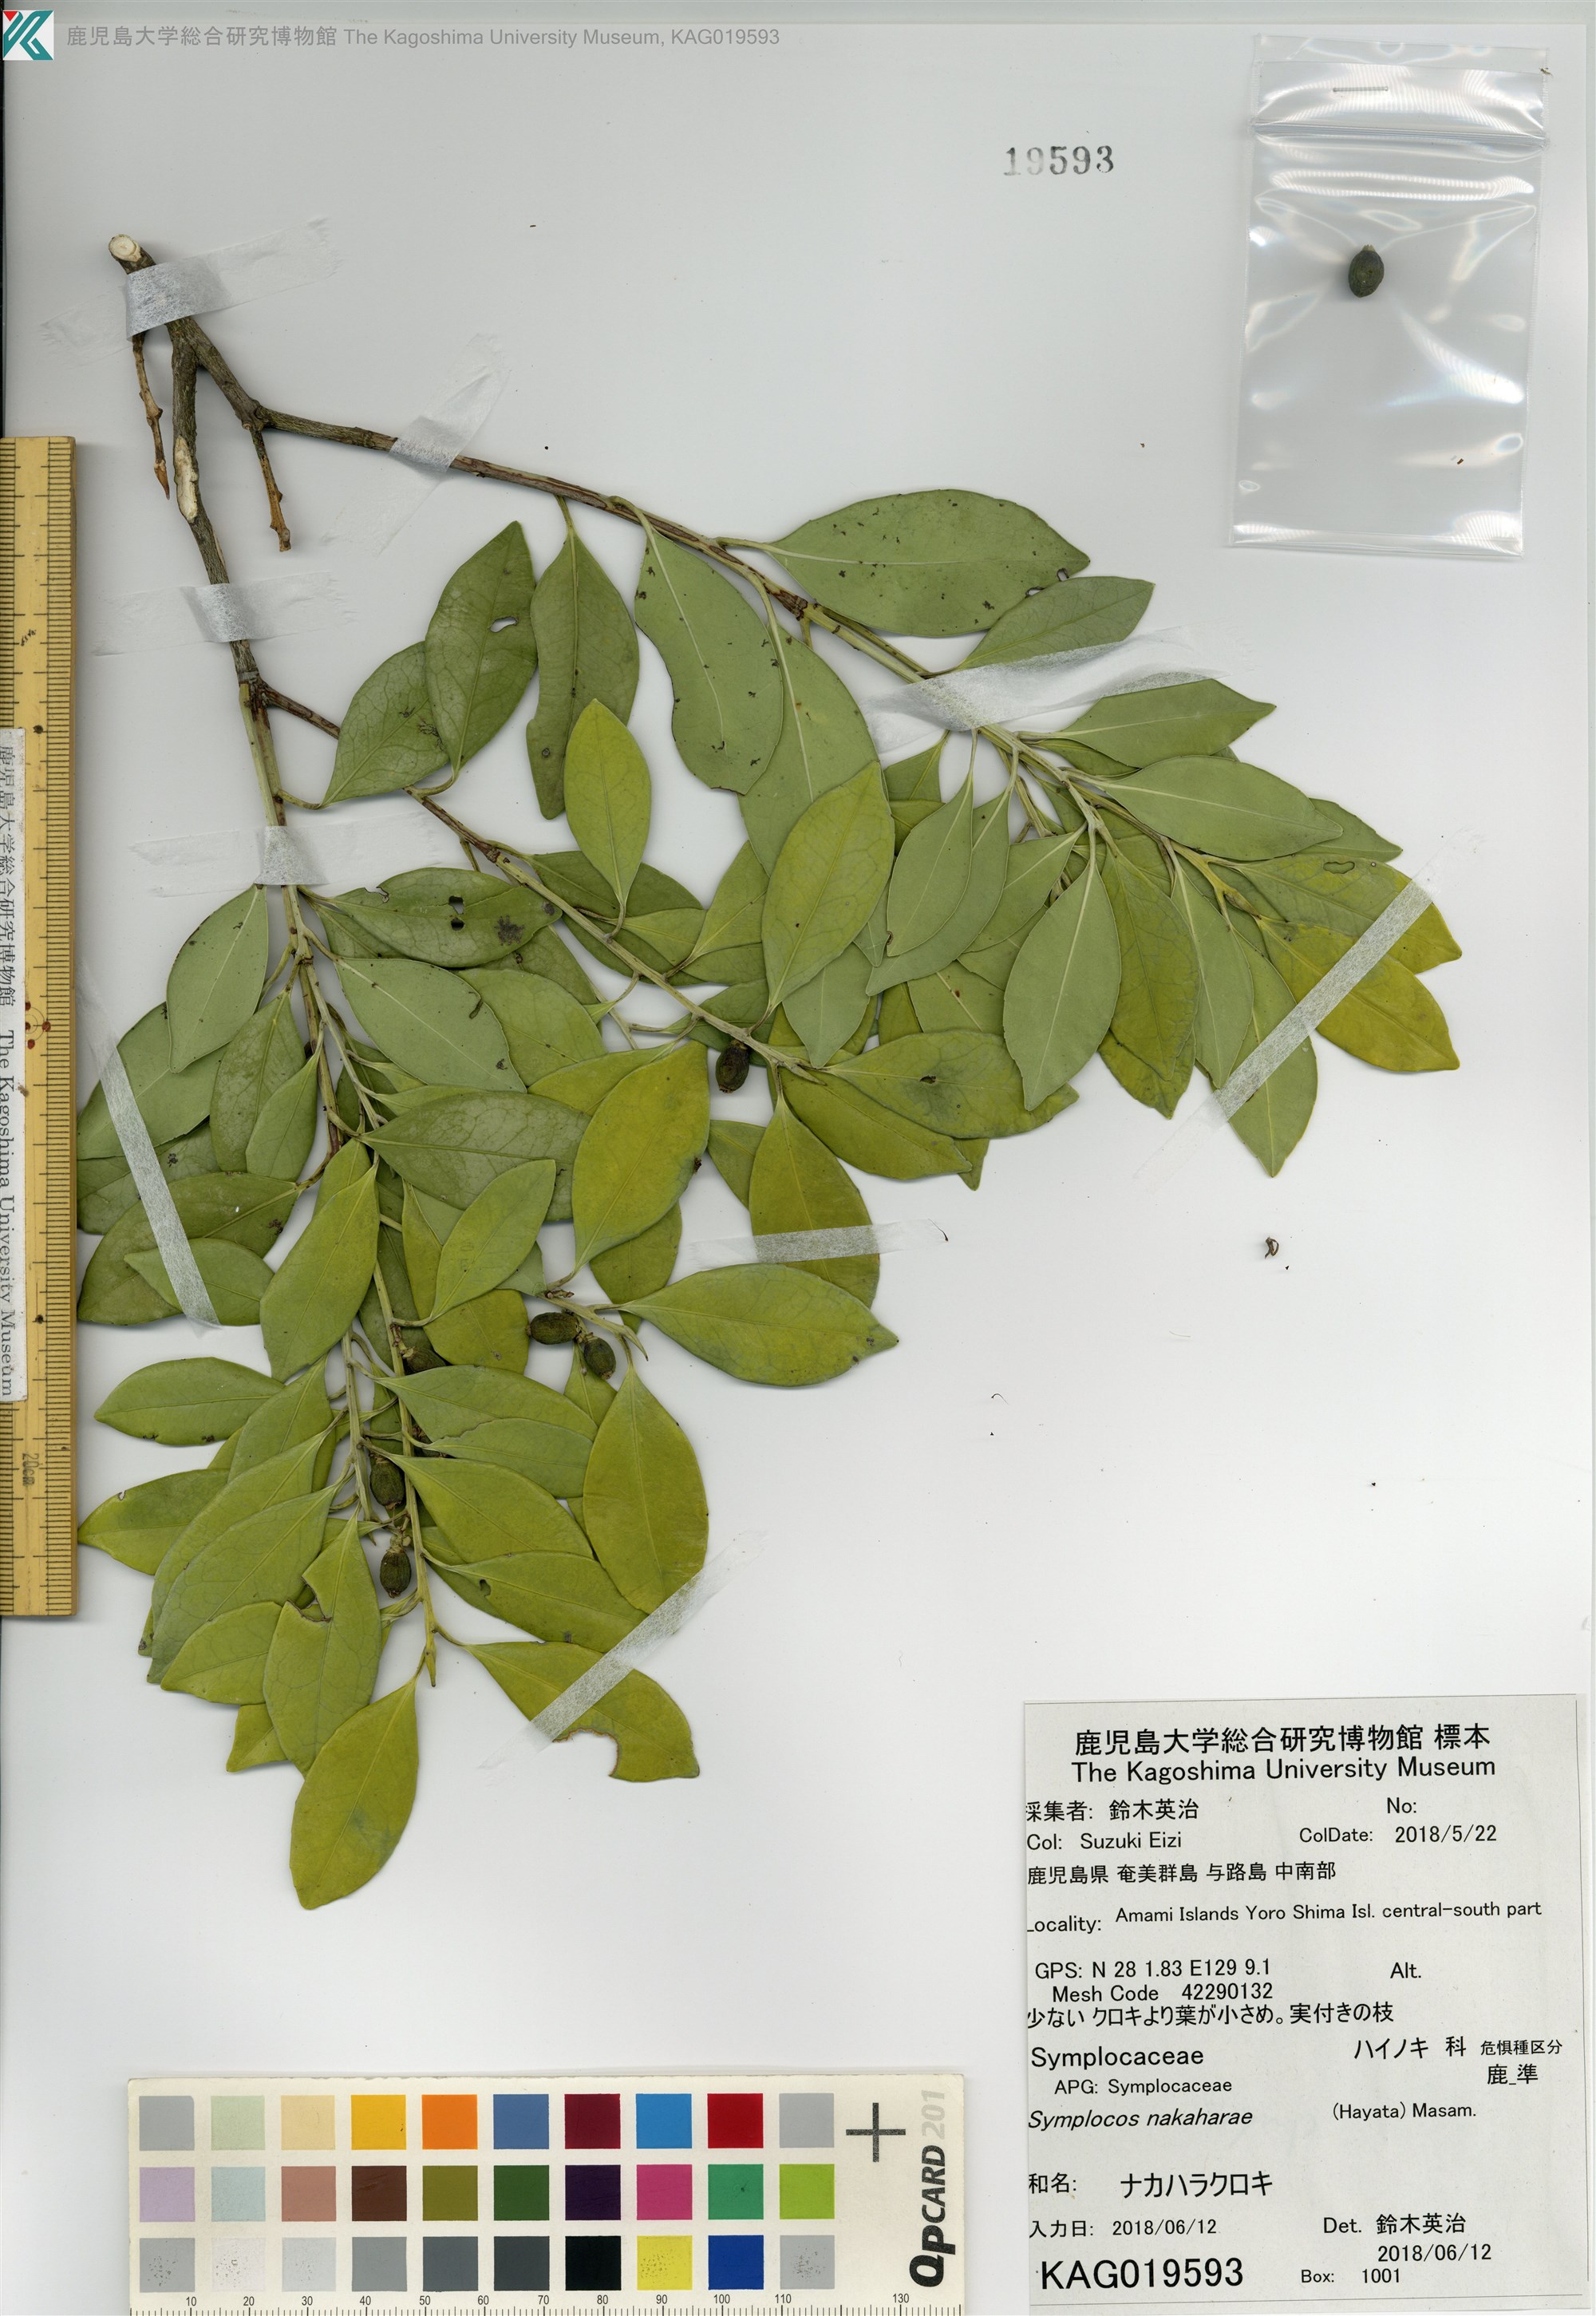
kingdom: Plantae
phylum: Tracheophyta
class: Magnoliopsida
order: Ericales
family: Symplocaceae
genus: Symplocos
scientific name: Symplocos nakaharae
